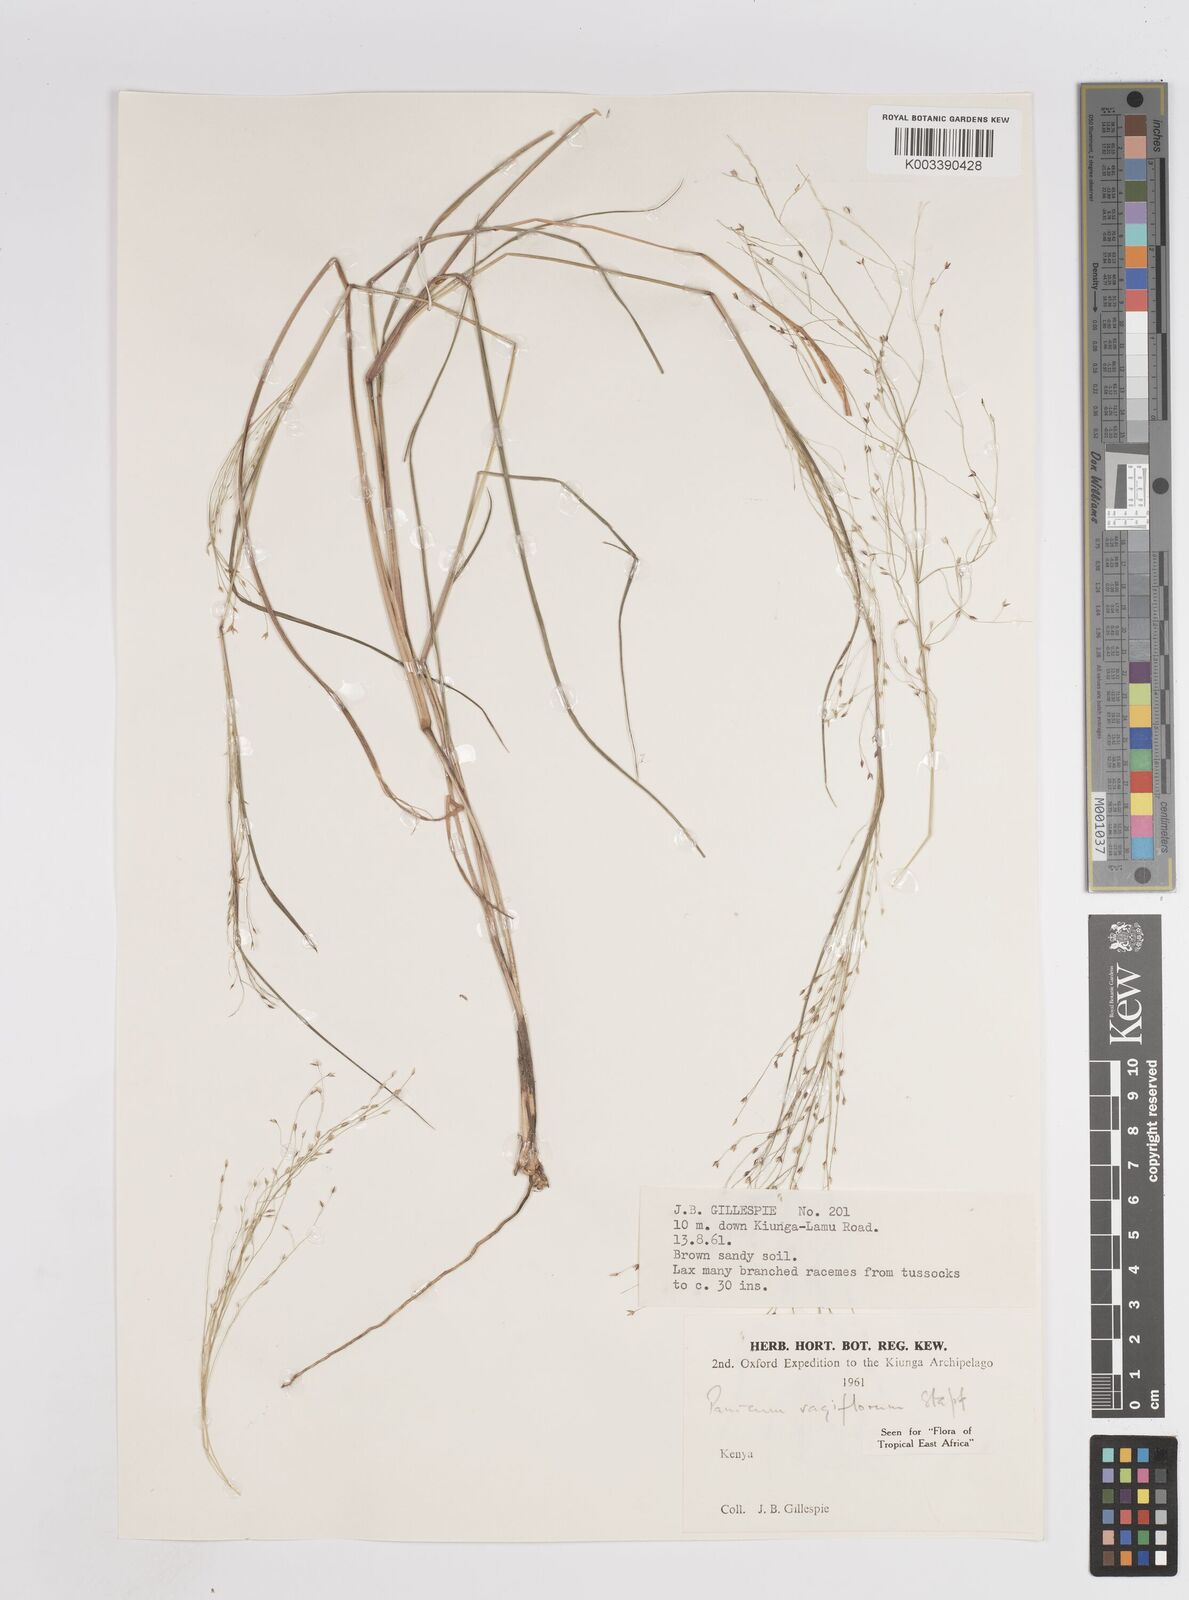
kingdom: Plantae
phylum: Tracheophyta
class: Liliopsida
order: Poales
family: Poaceae
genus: Panicum
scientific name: Panicum genuflexum
